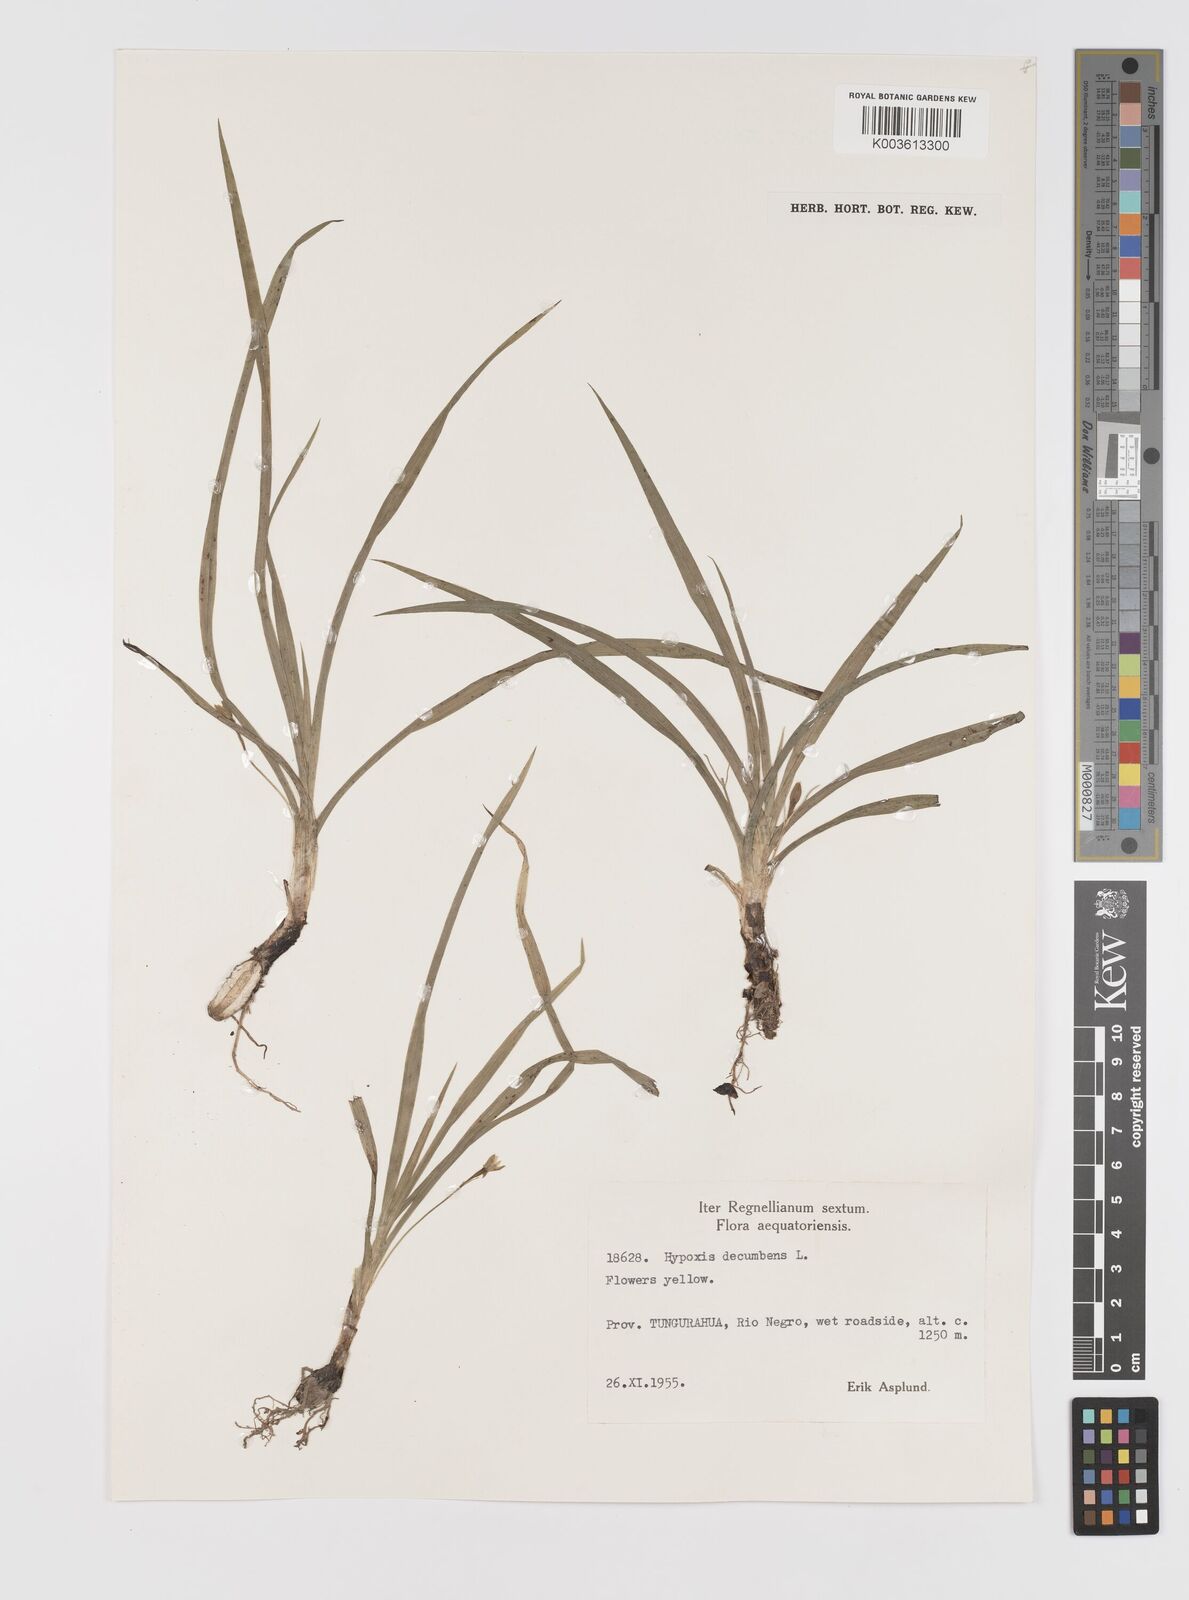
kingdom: Plantae
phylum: Tracheophyta
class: Liliopsida
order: Asparagales
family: Hypoxidaceae
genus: Hypoxis
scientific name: Hypoxis decumbens
